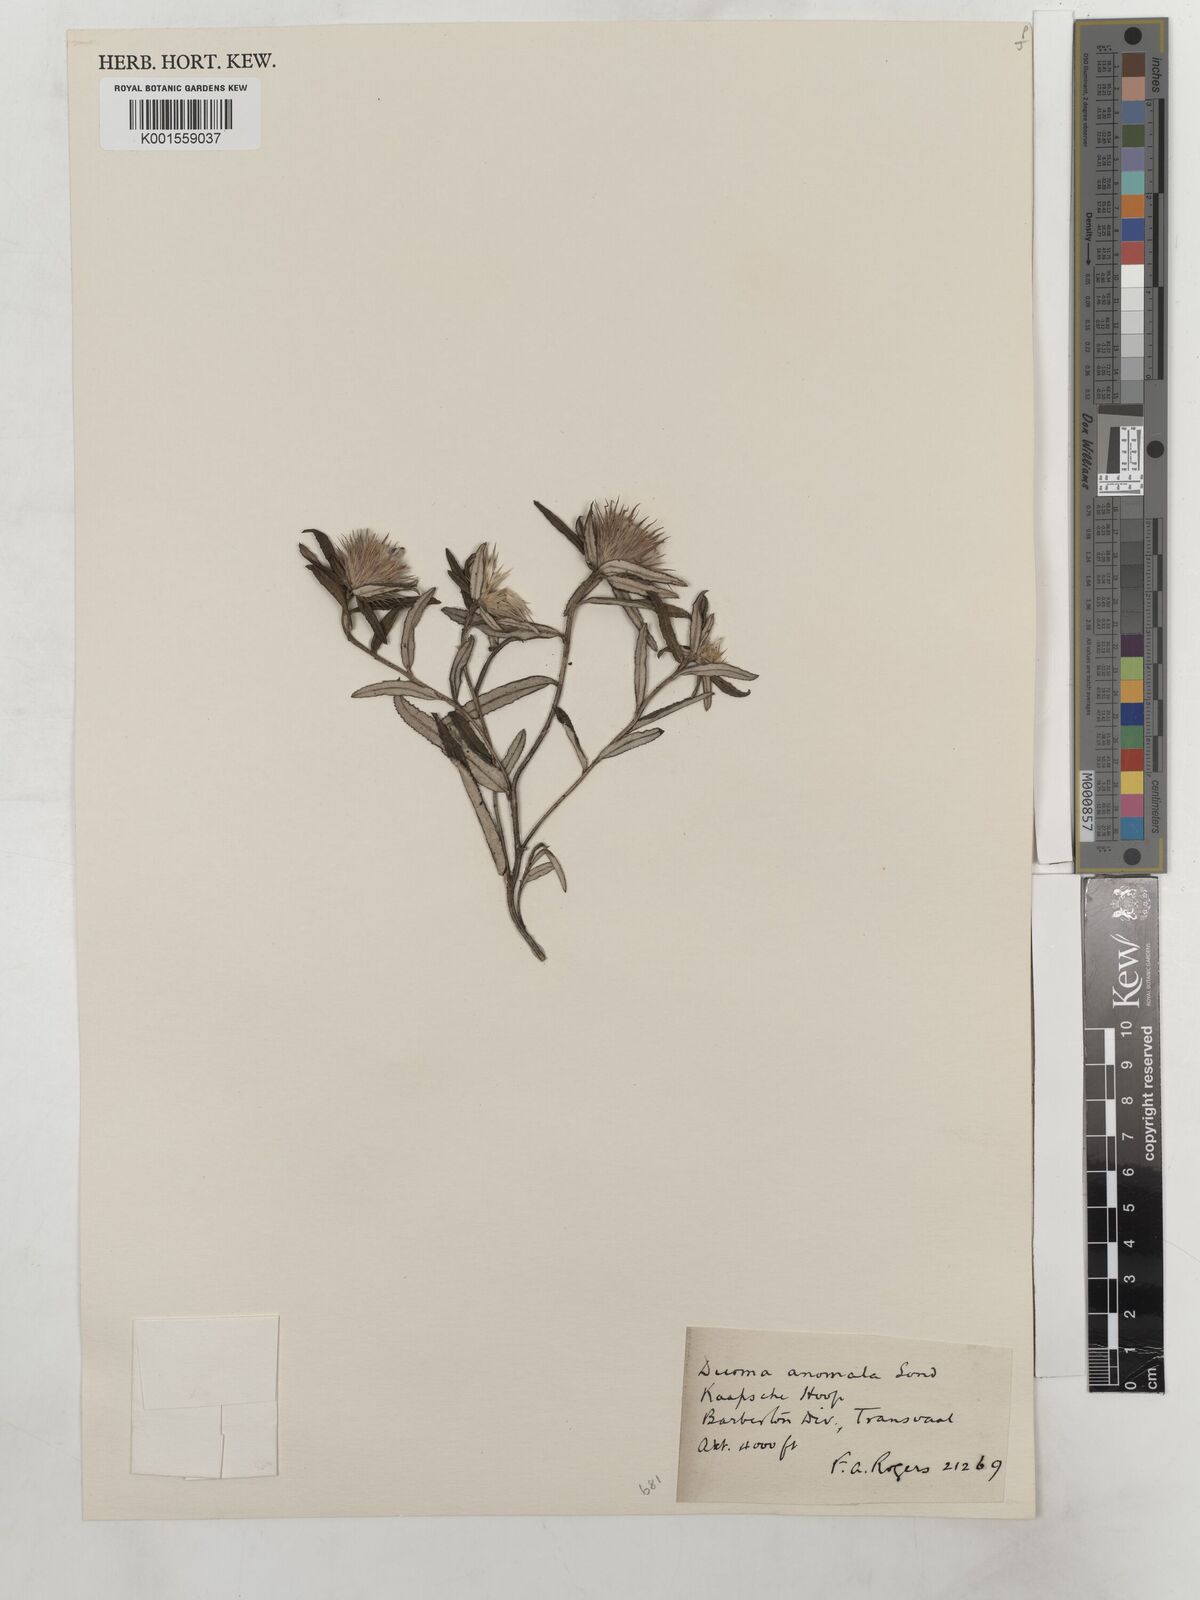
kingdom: Plantae
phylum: Tracheophyta
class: Magnoliopsida
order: Asterales
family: Asteraceae
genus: Dicoma
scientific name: Dicoma anomala
